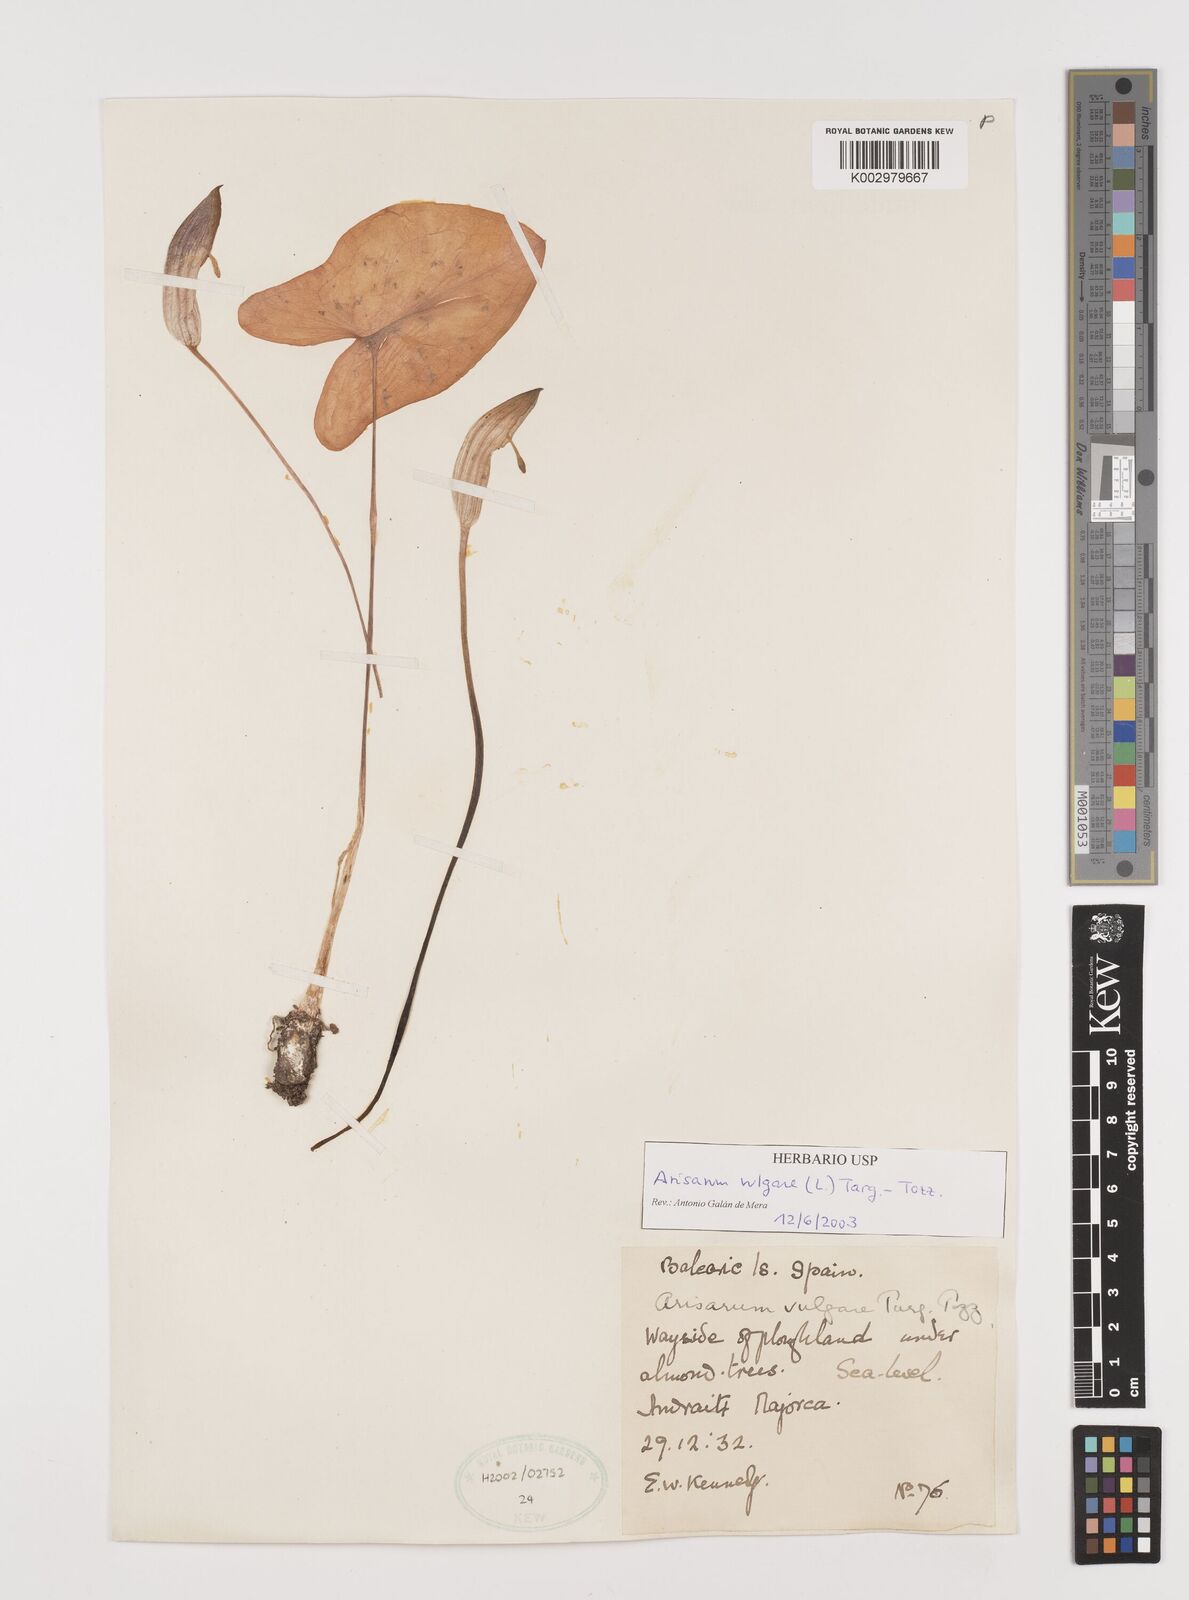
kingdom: Plantae
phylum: Tracheophyta
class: Liliopsida
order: Alismatales
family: Araceae
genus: Arisarum
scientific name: Arisarum vulgare
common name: Common arisarum
